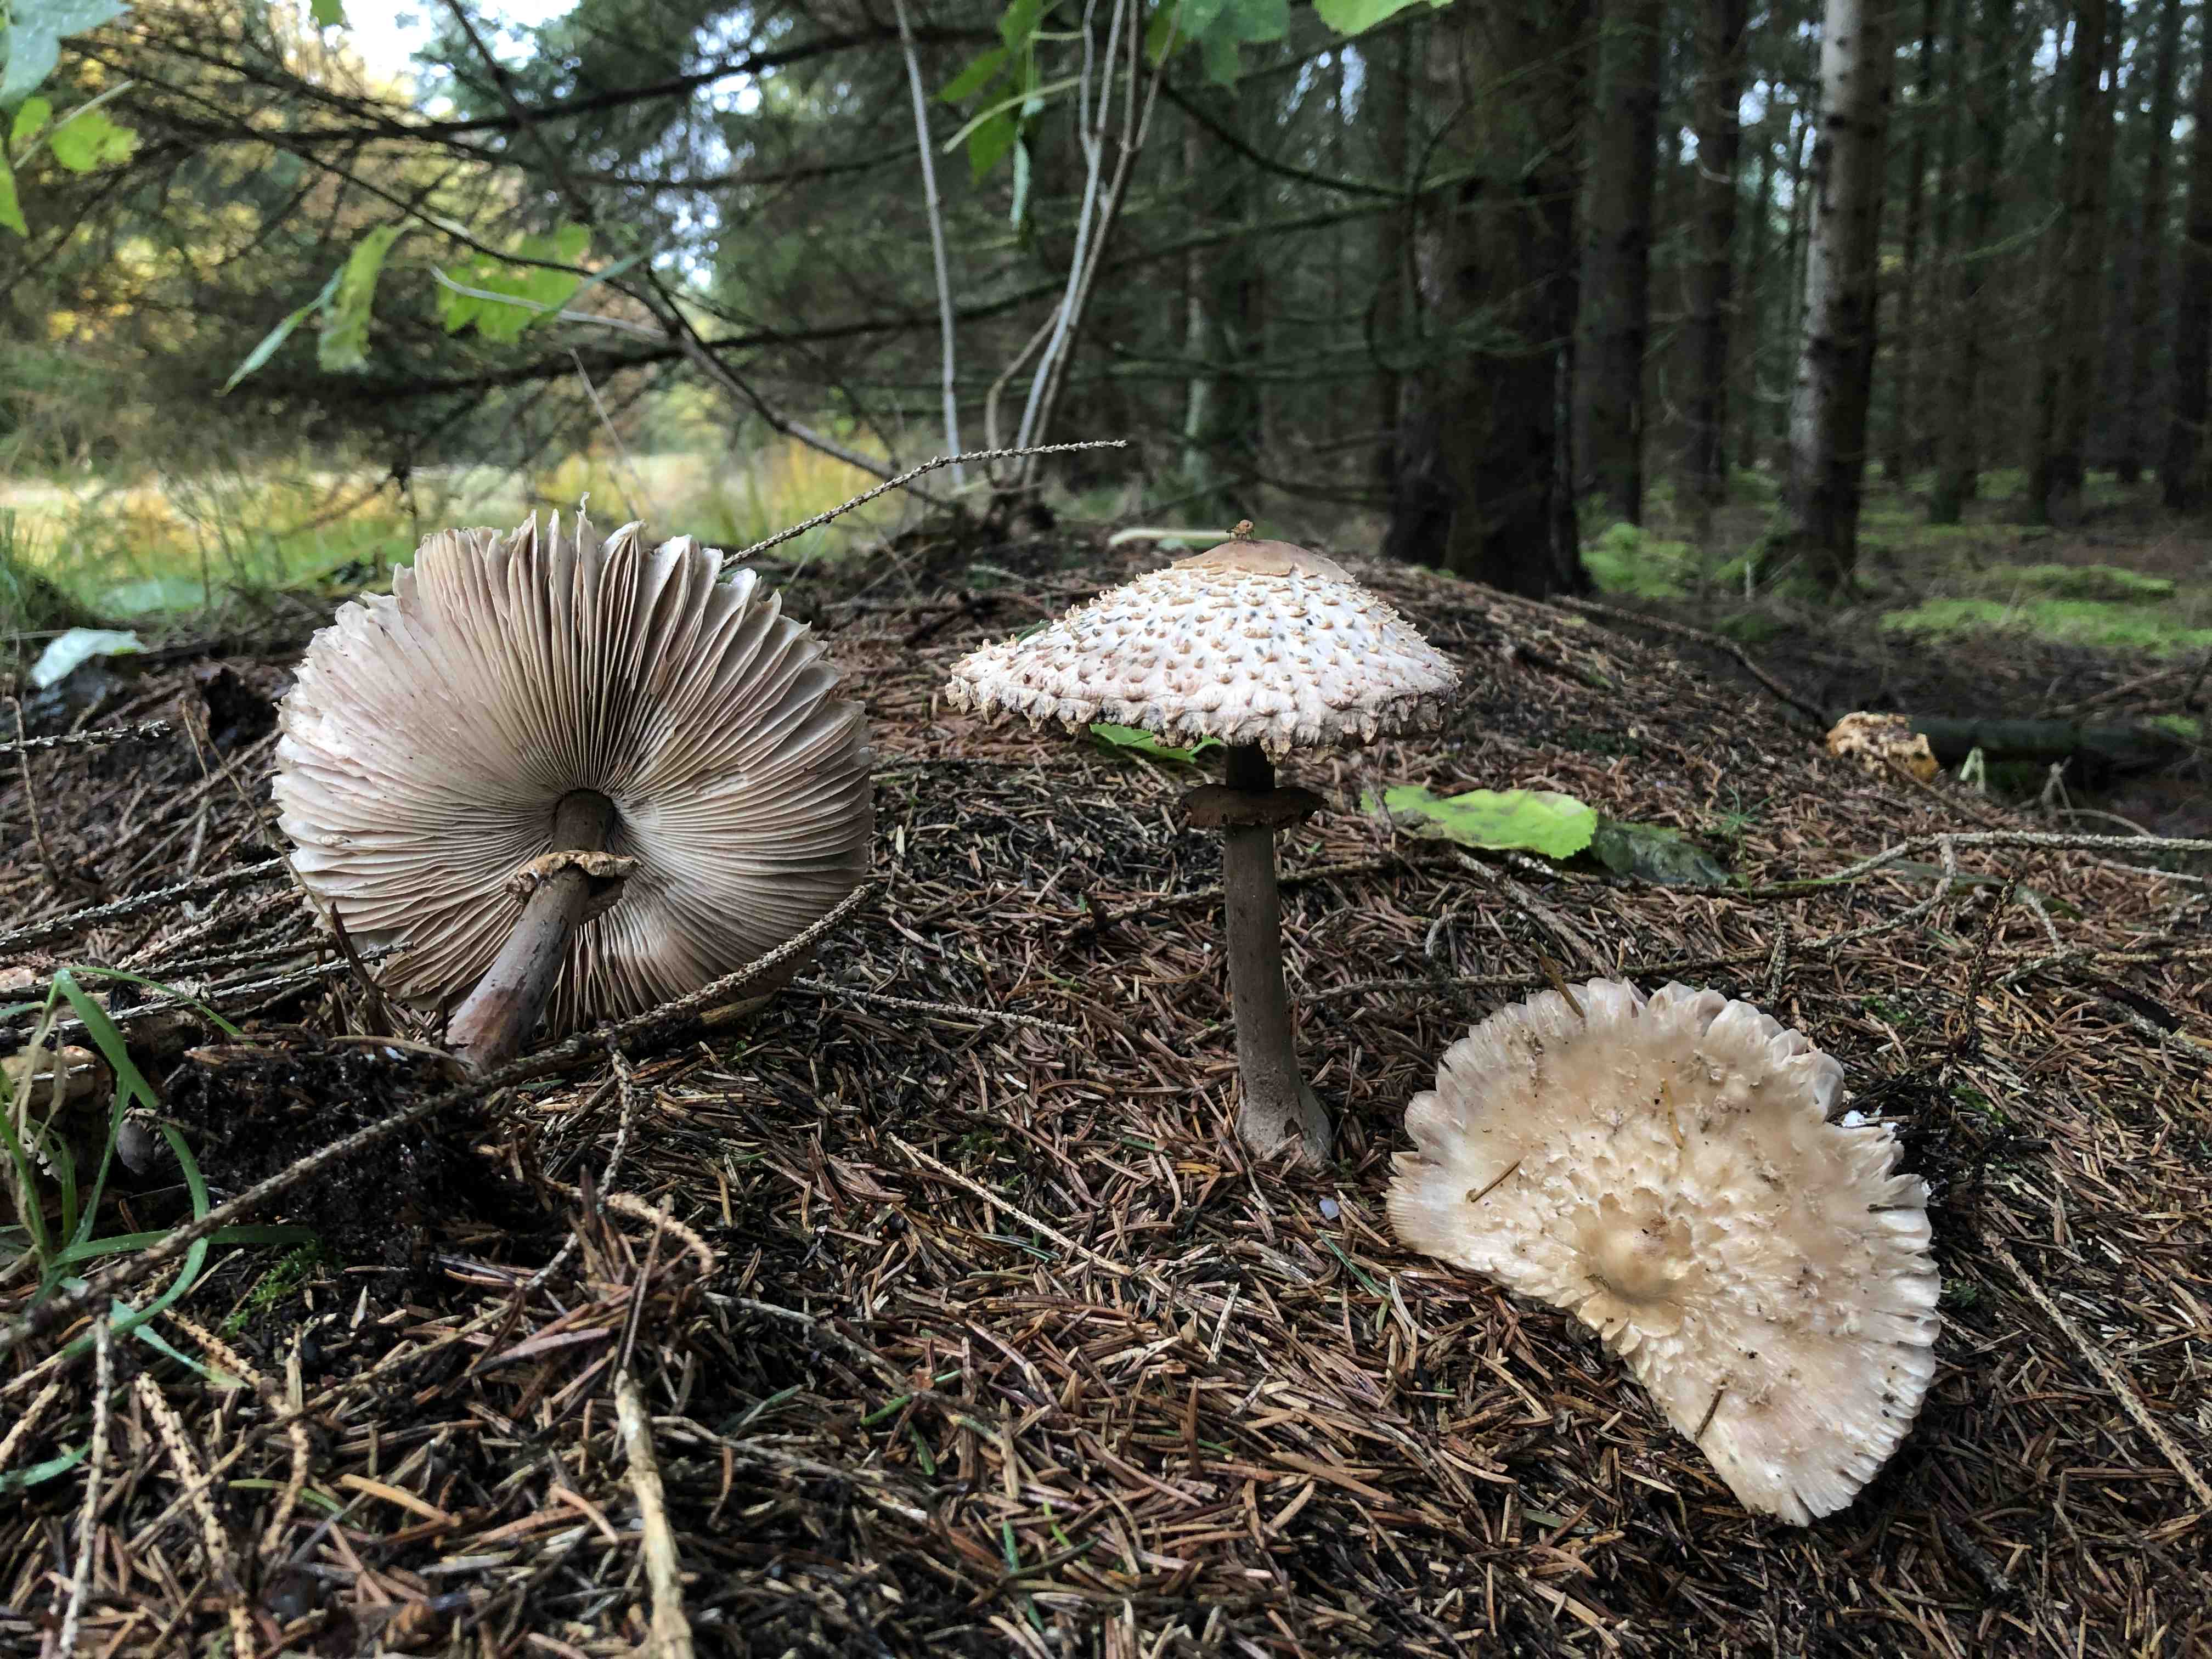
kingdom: Fungi
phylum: Basidiomycota
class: Agaricomycetes
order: Agaricales
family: Agaricaceae
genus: Leucoagaricus
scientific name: Leucoagaricus nympharum
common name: gran-silkehat
